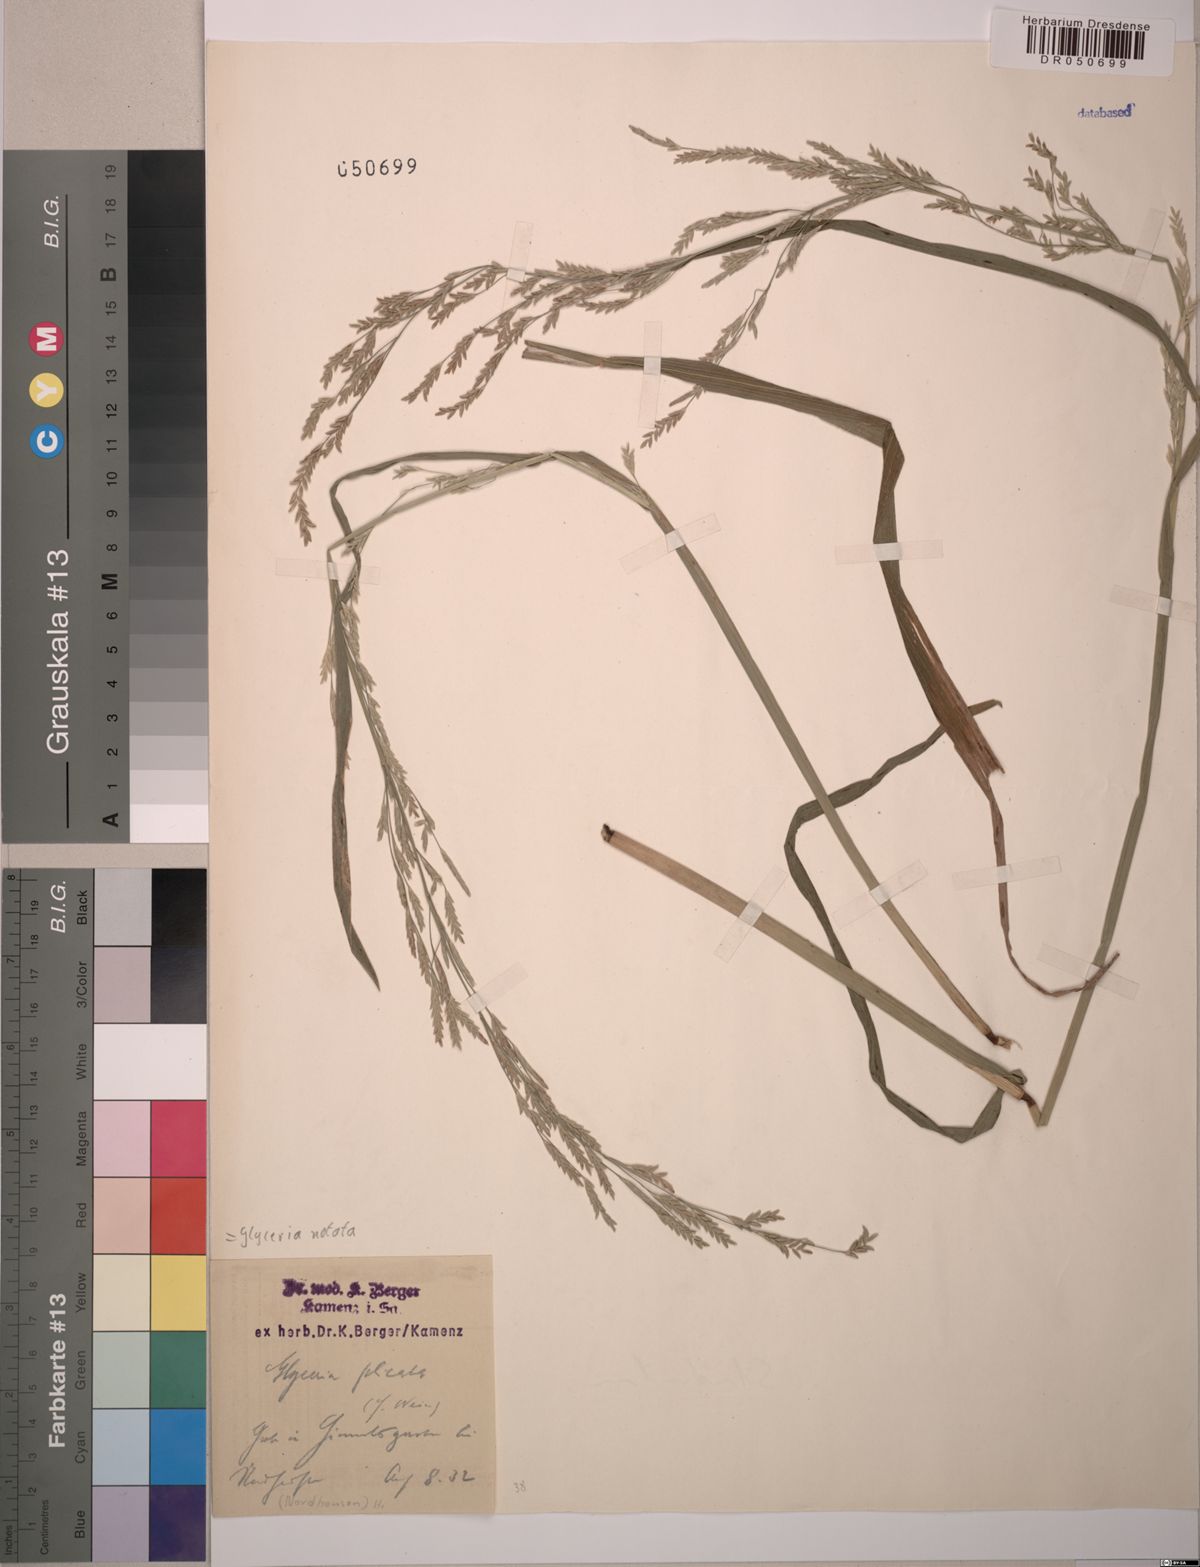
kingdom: Plantae
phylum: Tracheophyta
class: Liliopsida
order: Poales
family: Poaceae
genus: Glyceria
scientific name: Glyceria notata
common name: Plicate sweet-grass
